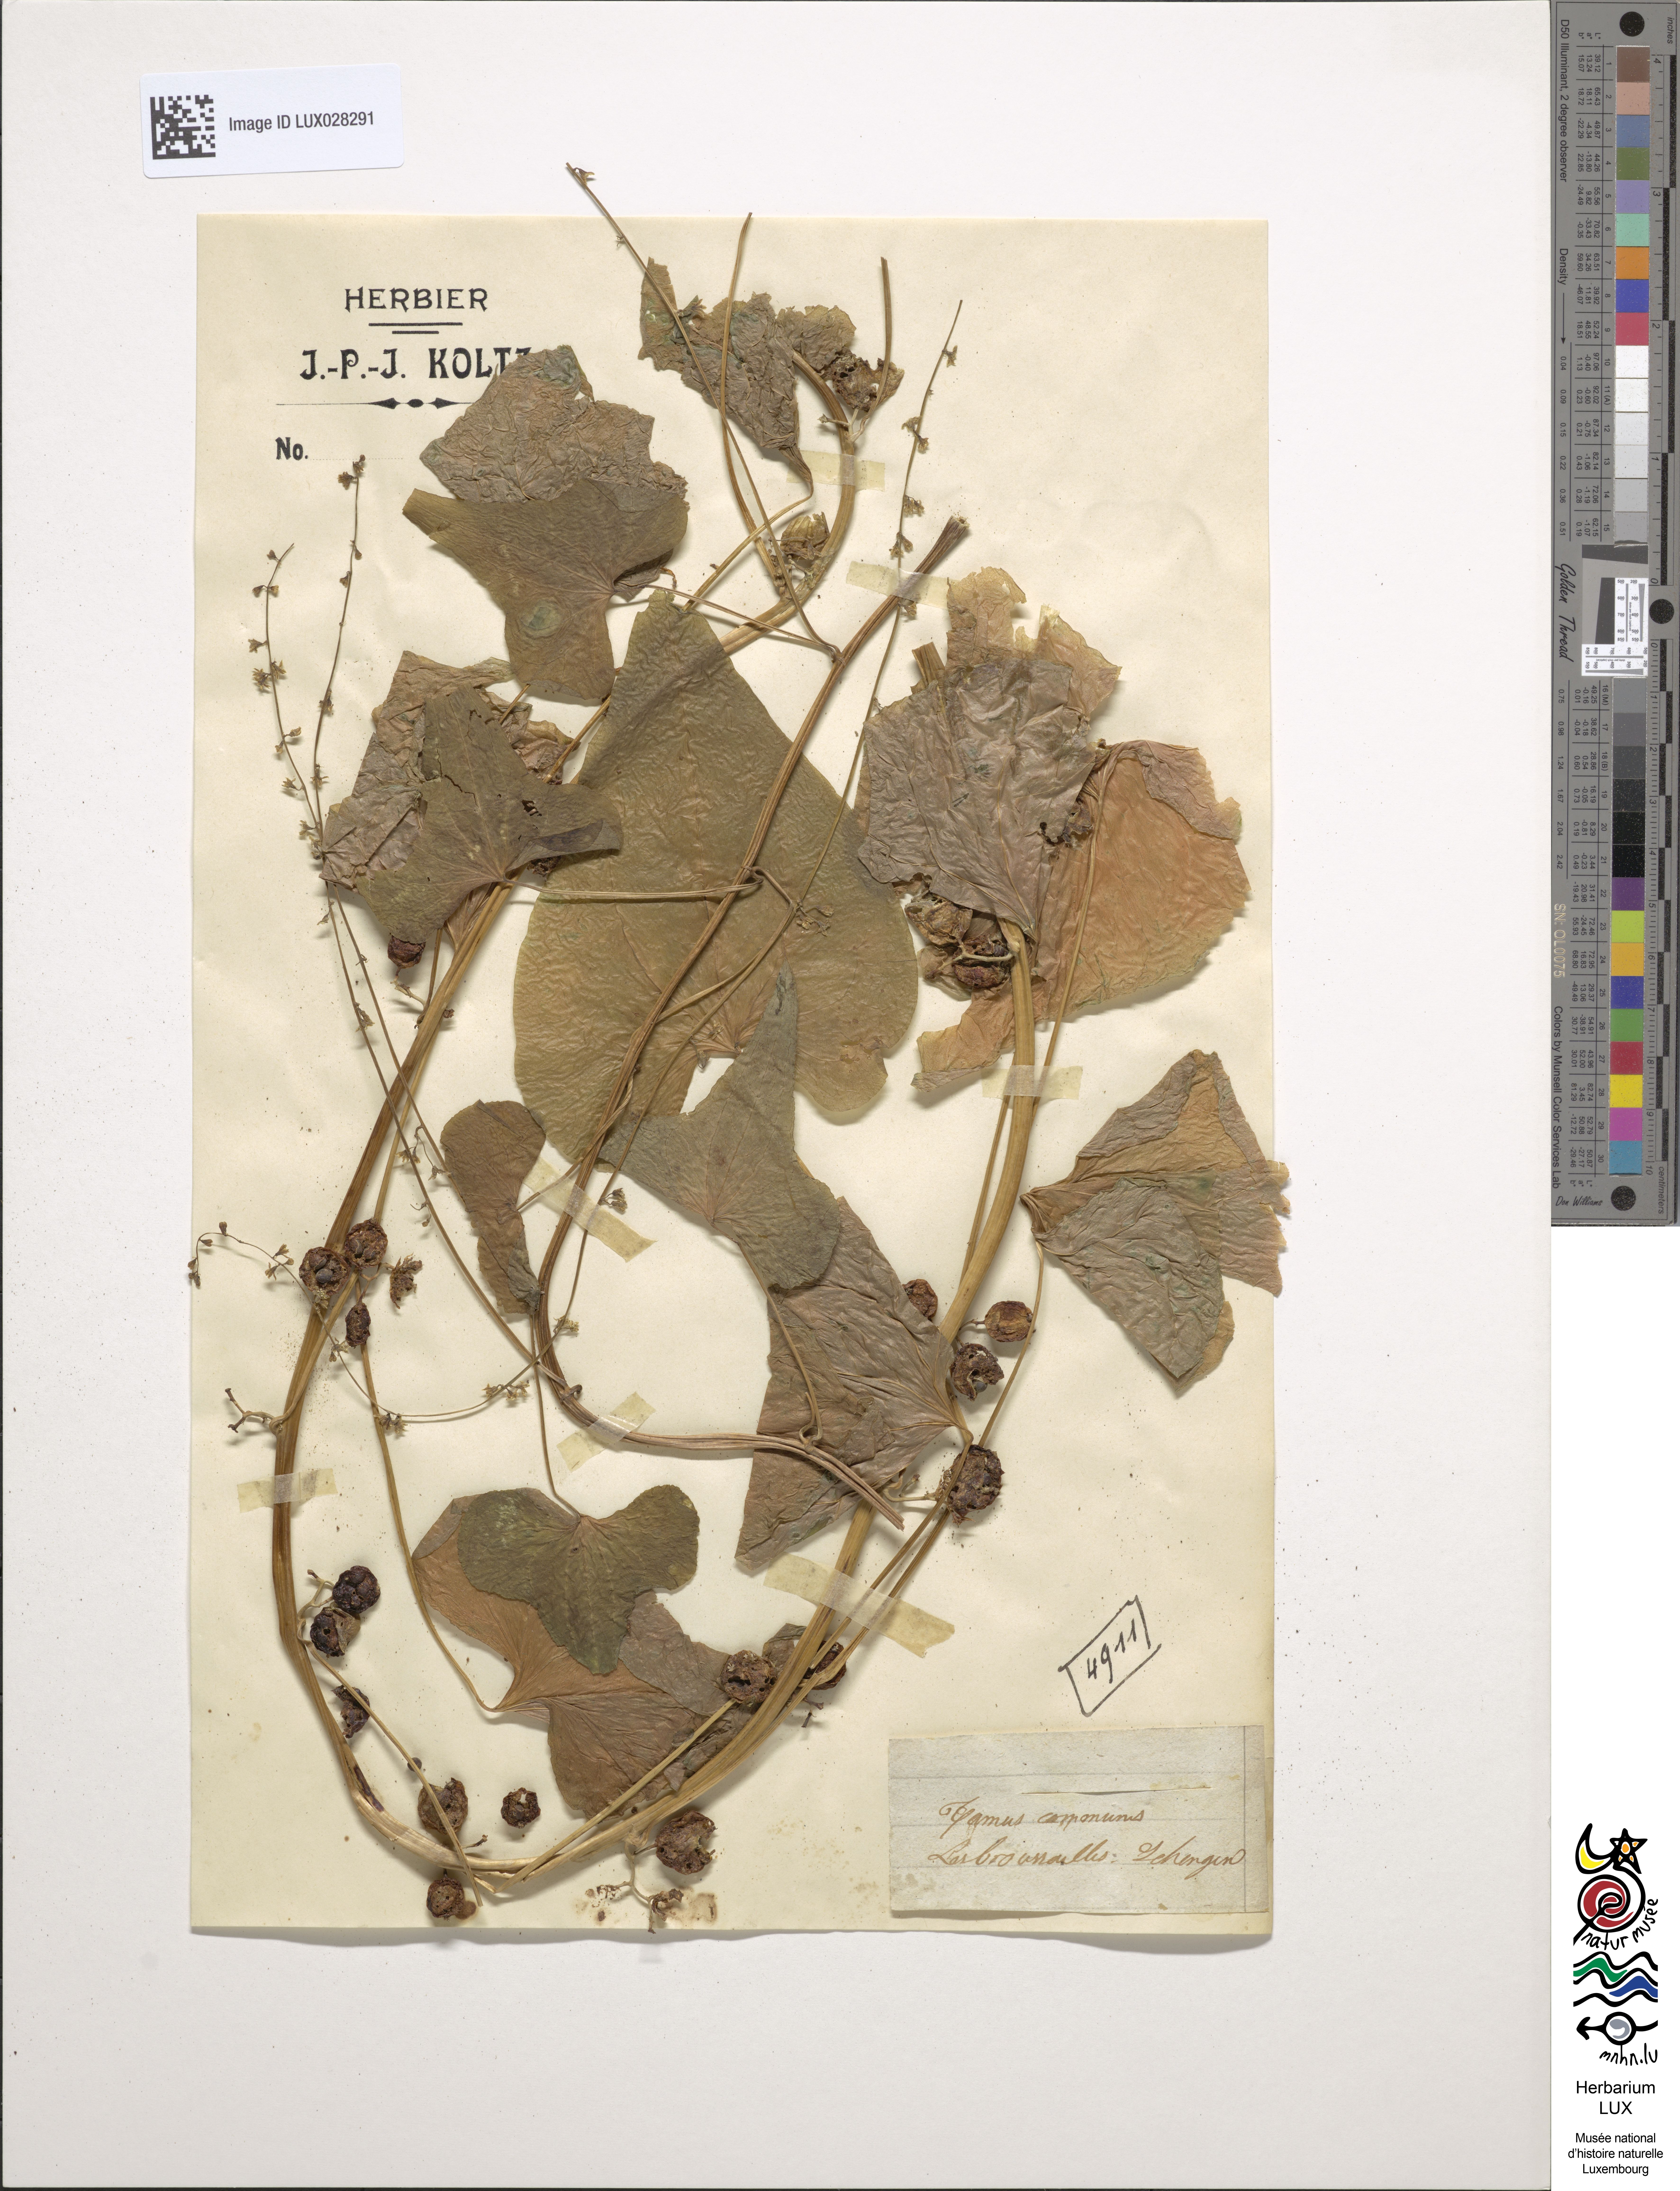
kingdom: Plantae
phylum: Tracheophyta
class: Liliopsida
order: Dioscoreales
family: Dioscoreaceae
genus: Dioscorea
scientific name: Dioscorea communis
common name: Black-bindweed
